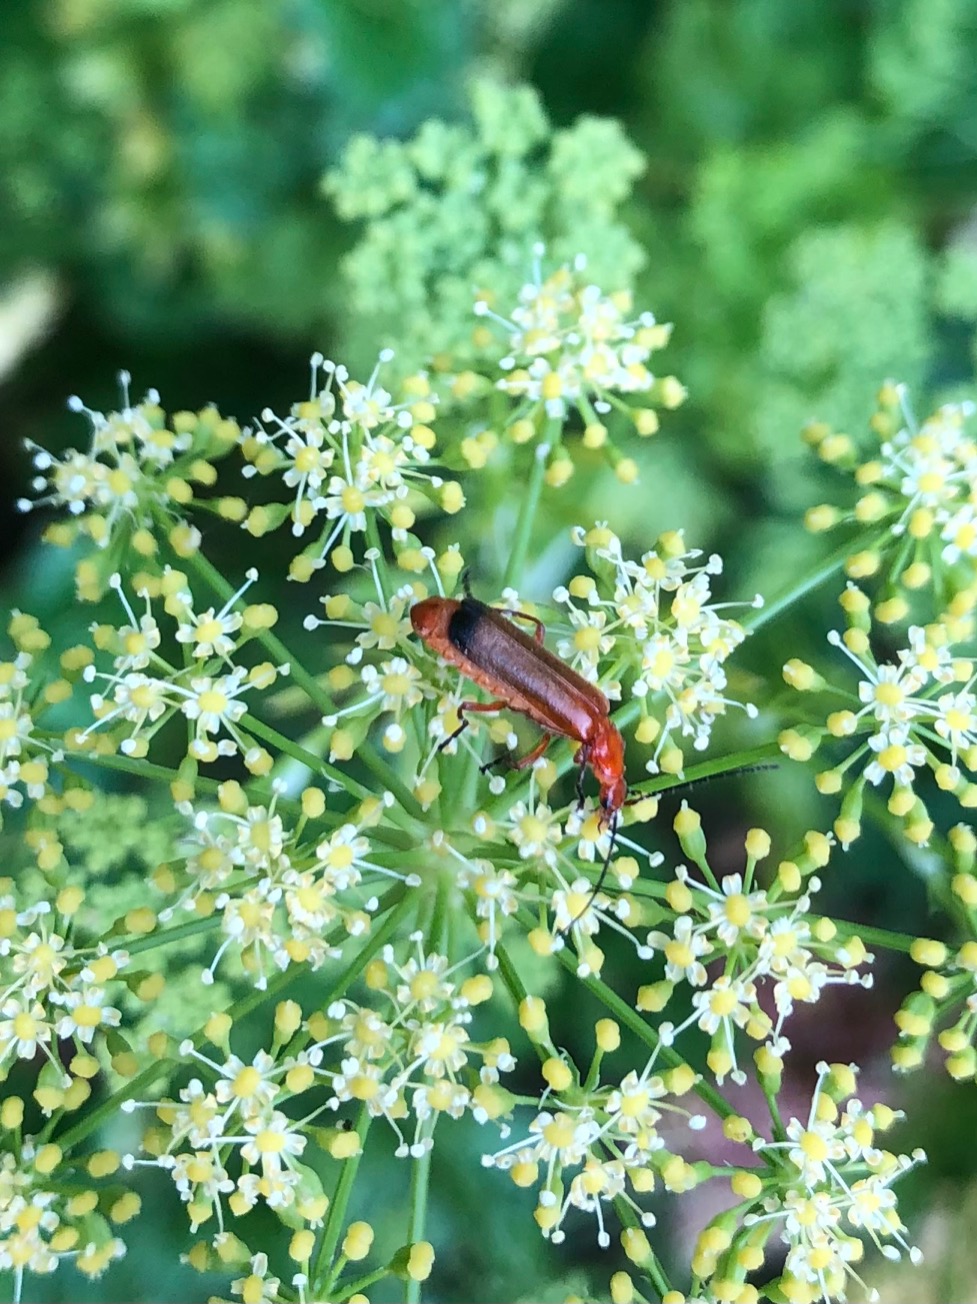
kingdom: Animalia
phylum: Arthropoda
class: Insecta
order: Coleoptera
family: Cantharidae
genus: Rhagonycha
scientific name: Rhagonycha fulva
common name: Præstebille
